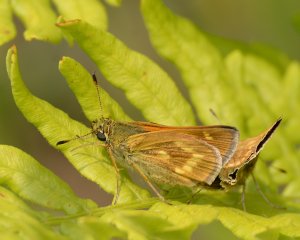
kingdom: Animalia
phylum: Arthropoda
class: Insecta
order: Lepidoptera
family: Hesperiidae
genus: Polites
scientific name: Polites
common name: Long Dash Skipper
